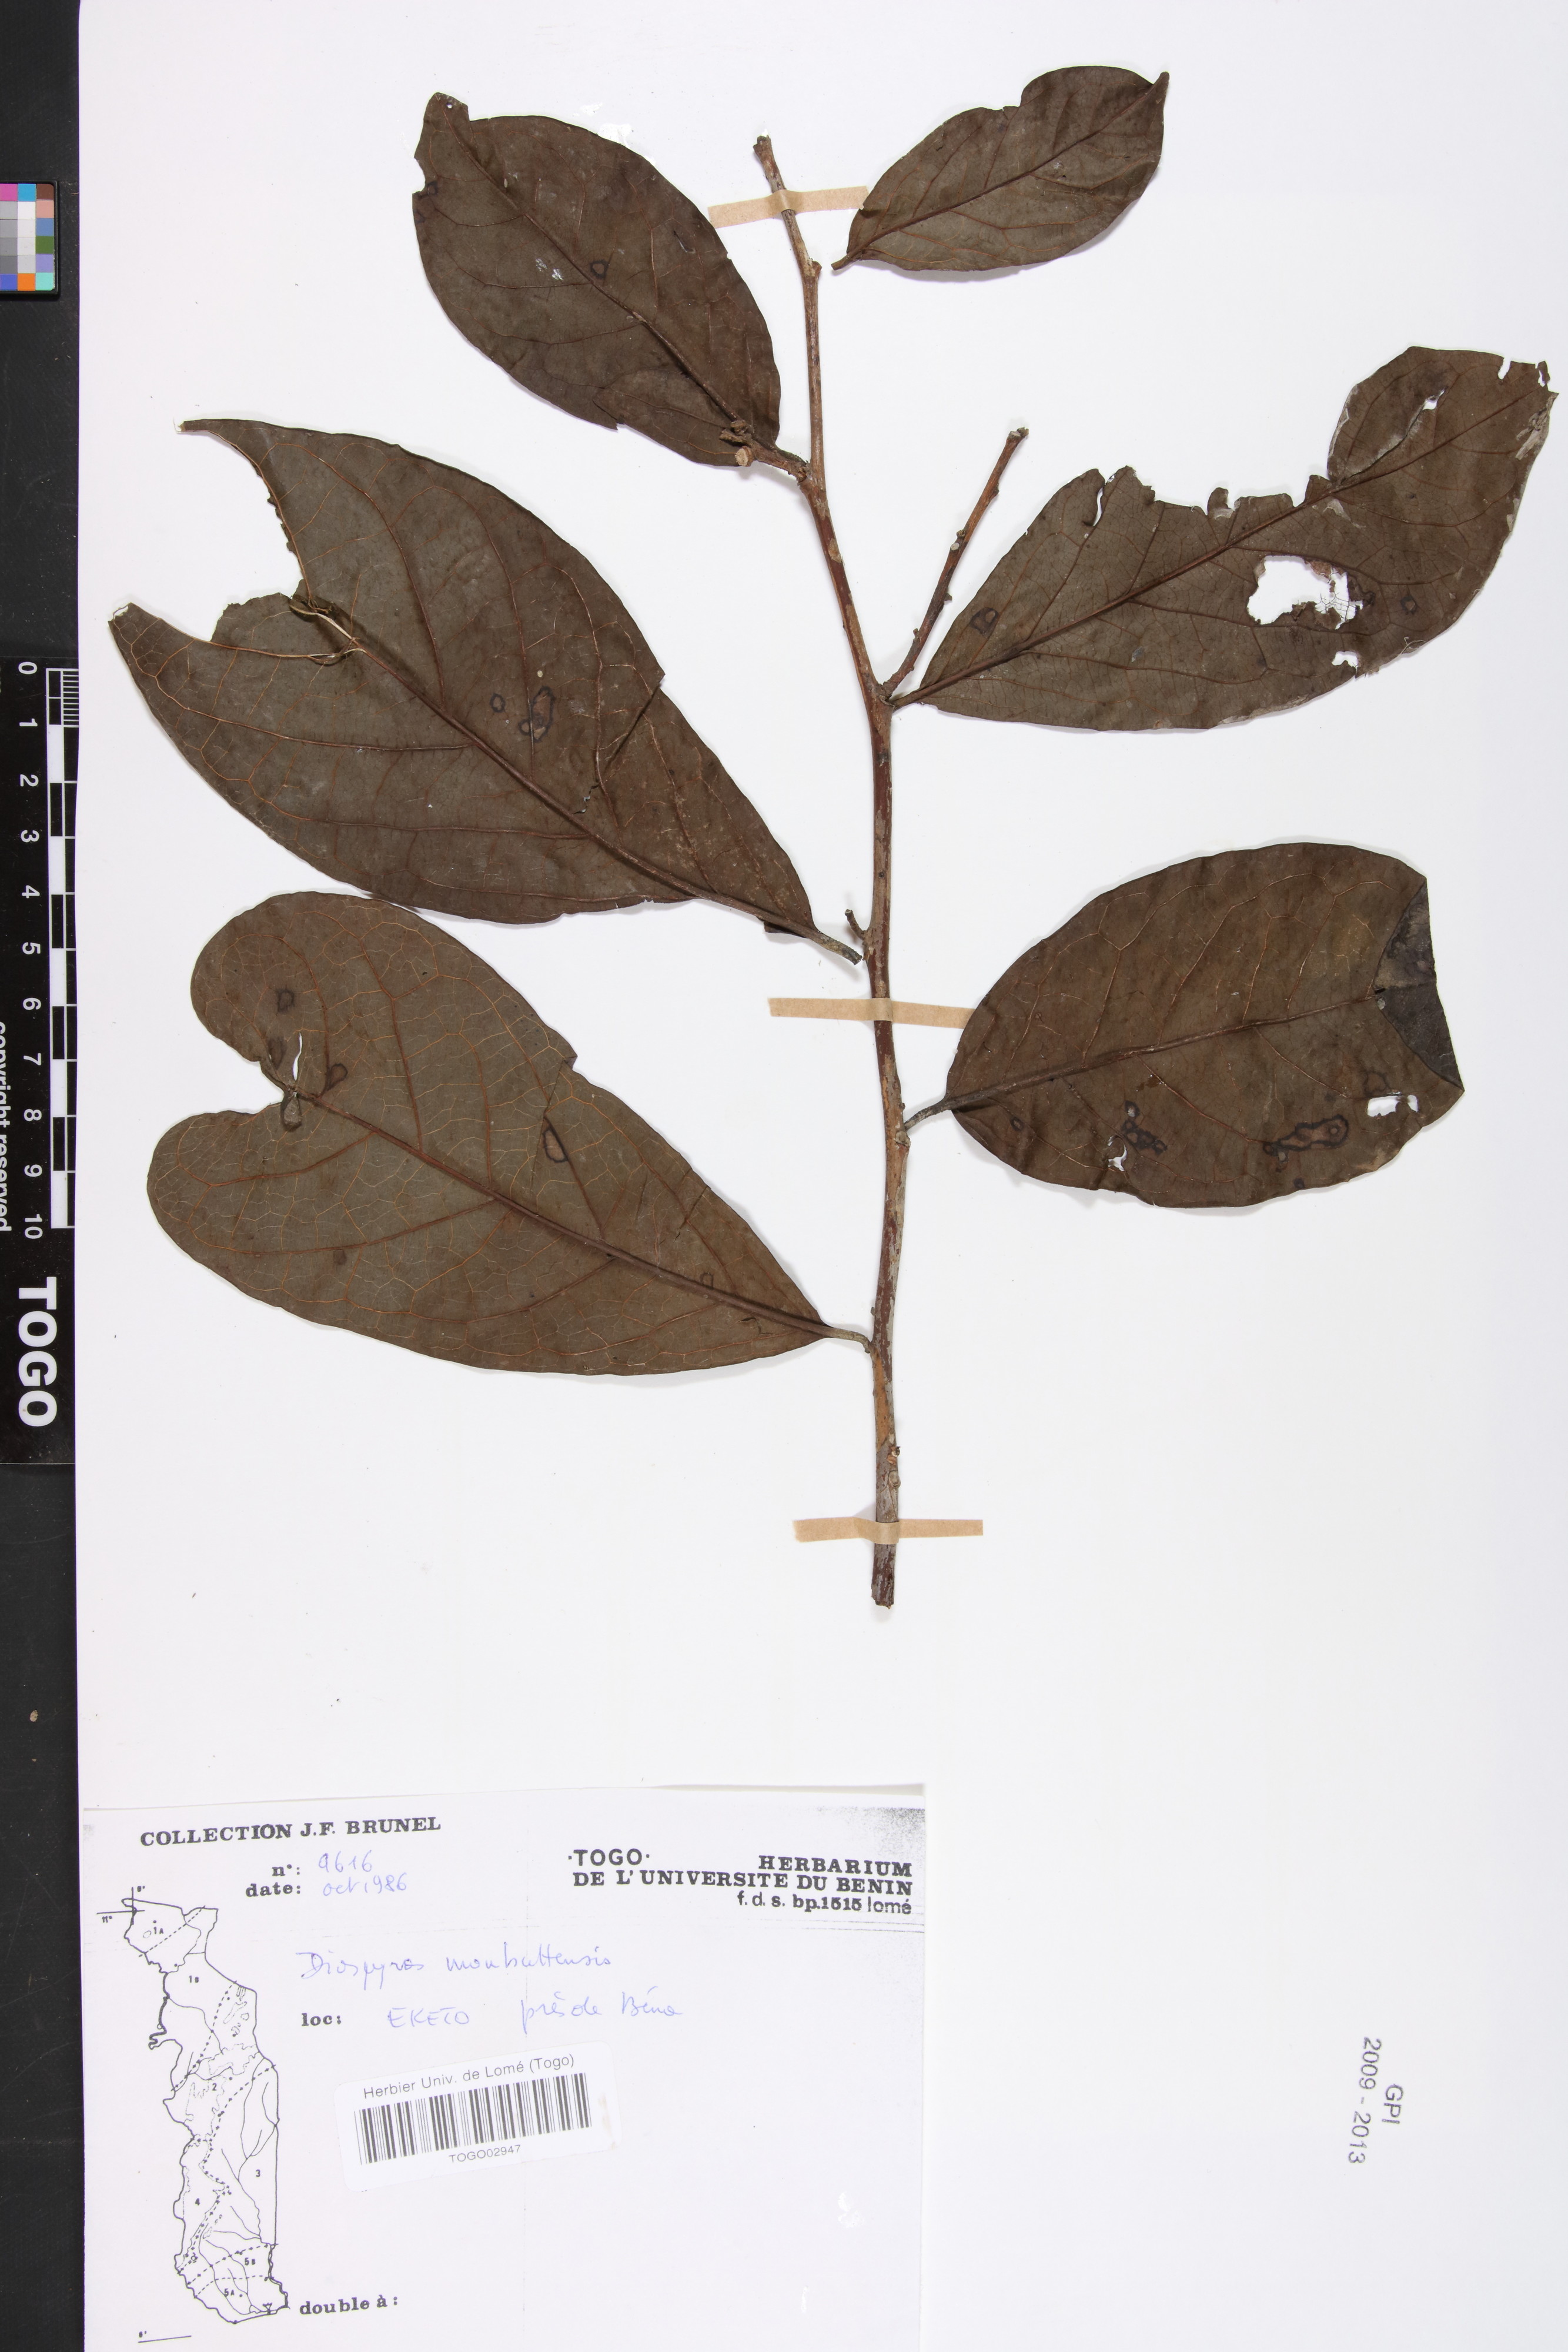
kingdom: Plantae
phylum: Tracheophyta
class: Magnoliopsida
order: Ericales
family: Ebenaceae
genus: Diospyros
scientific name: Diospyros monbuttensis
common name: Walking-stick ebony
